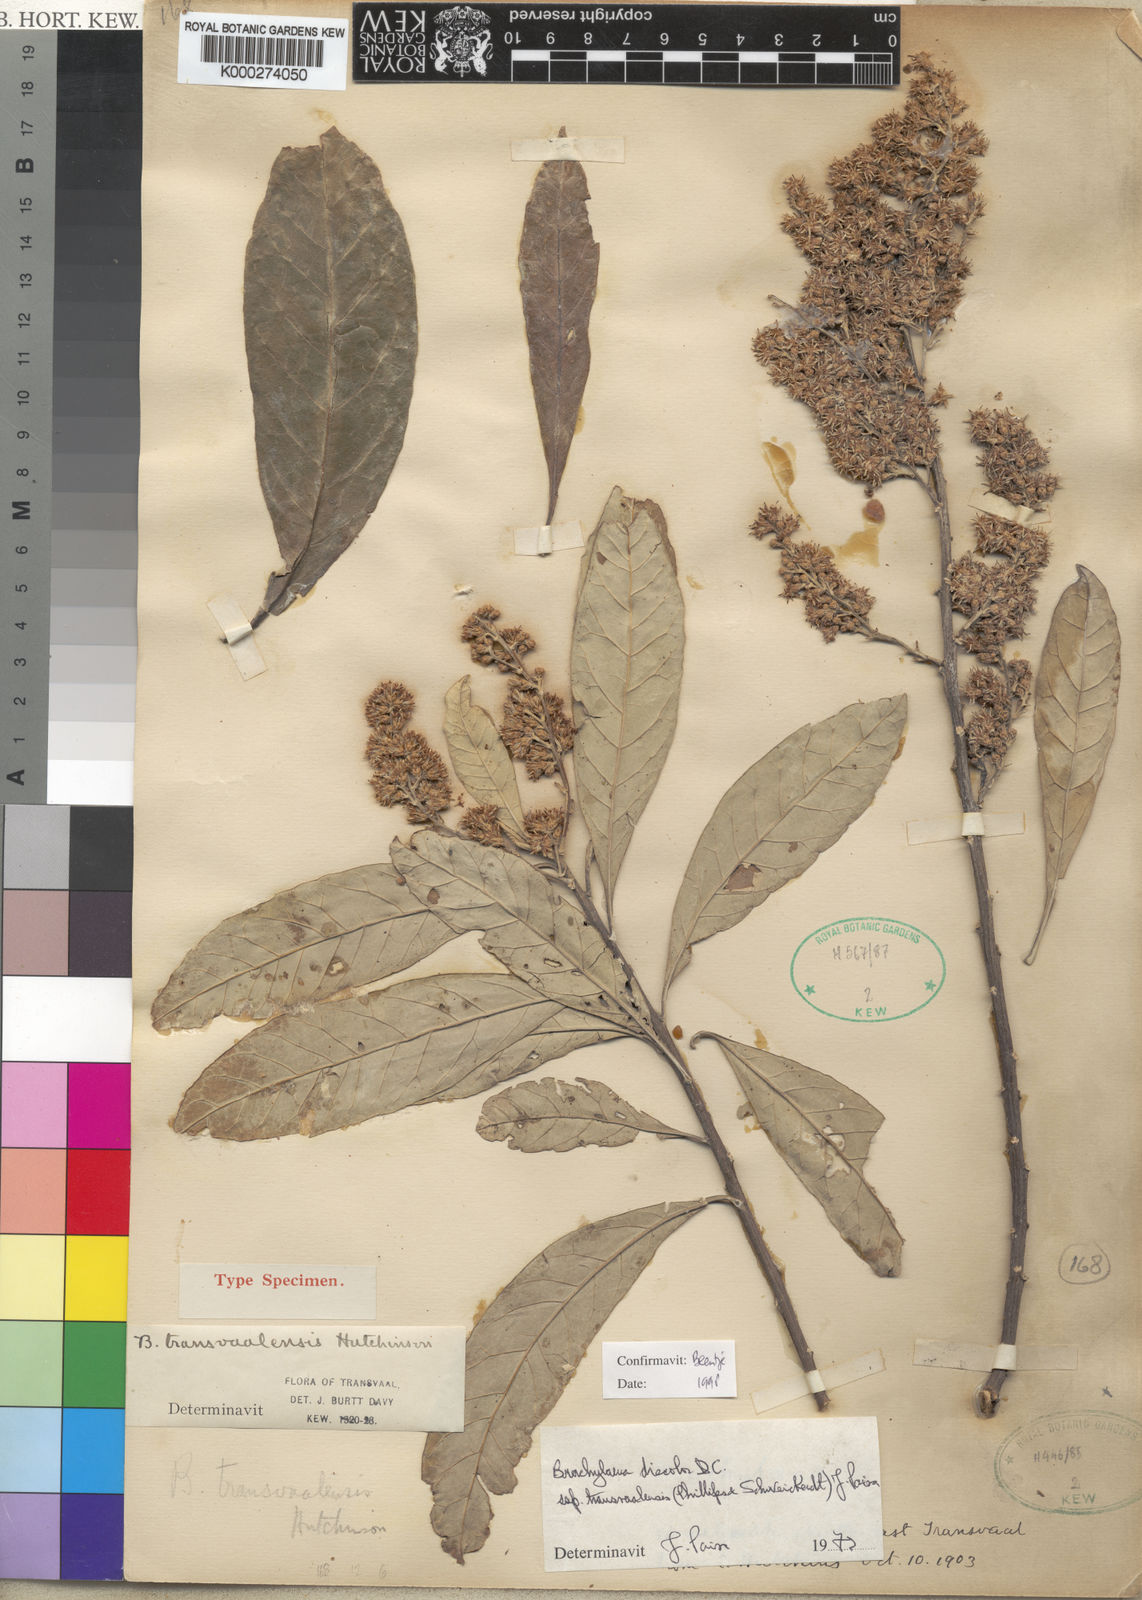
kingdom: Plantae
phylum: Tracheophyta
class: Magnoliopsida
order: Asterales
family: Asteraceae
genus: Brachylaena
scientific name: Brachylaena discolor
